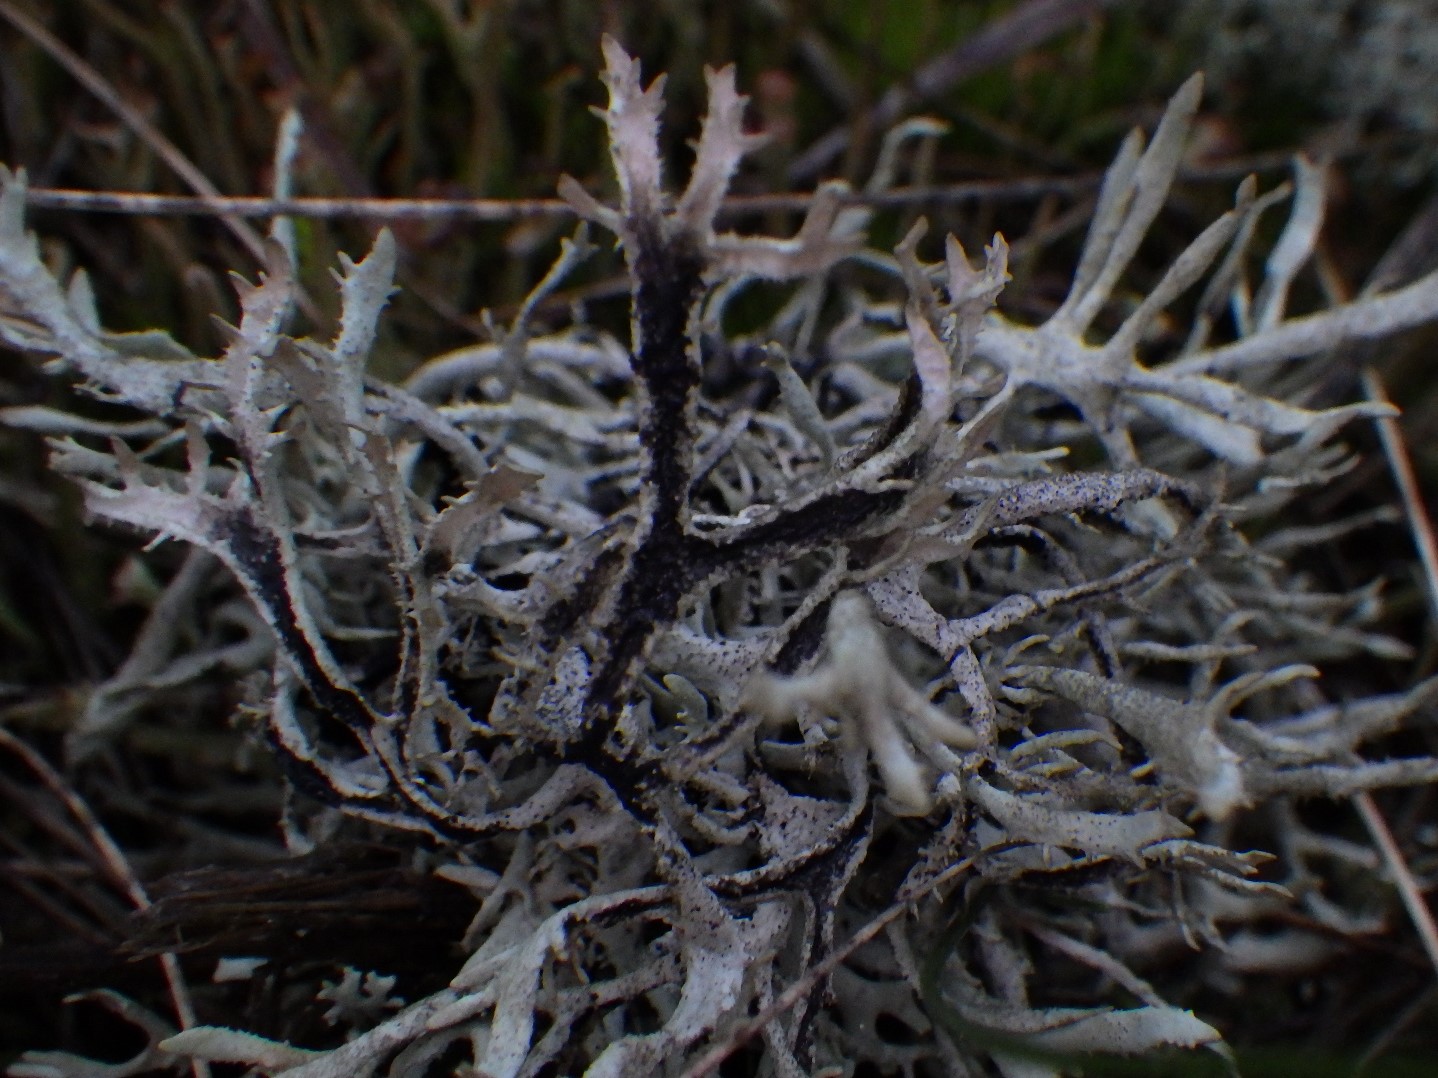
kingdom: Fungi
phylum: Ascomycota
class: Lecanoromycetes
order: Lecanorales
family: Parmeliaceae
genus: Pseudevernia
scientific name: Pseudevernia furfuracea
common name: grå fyrrelav
